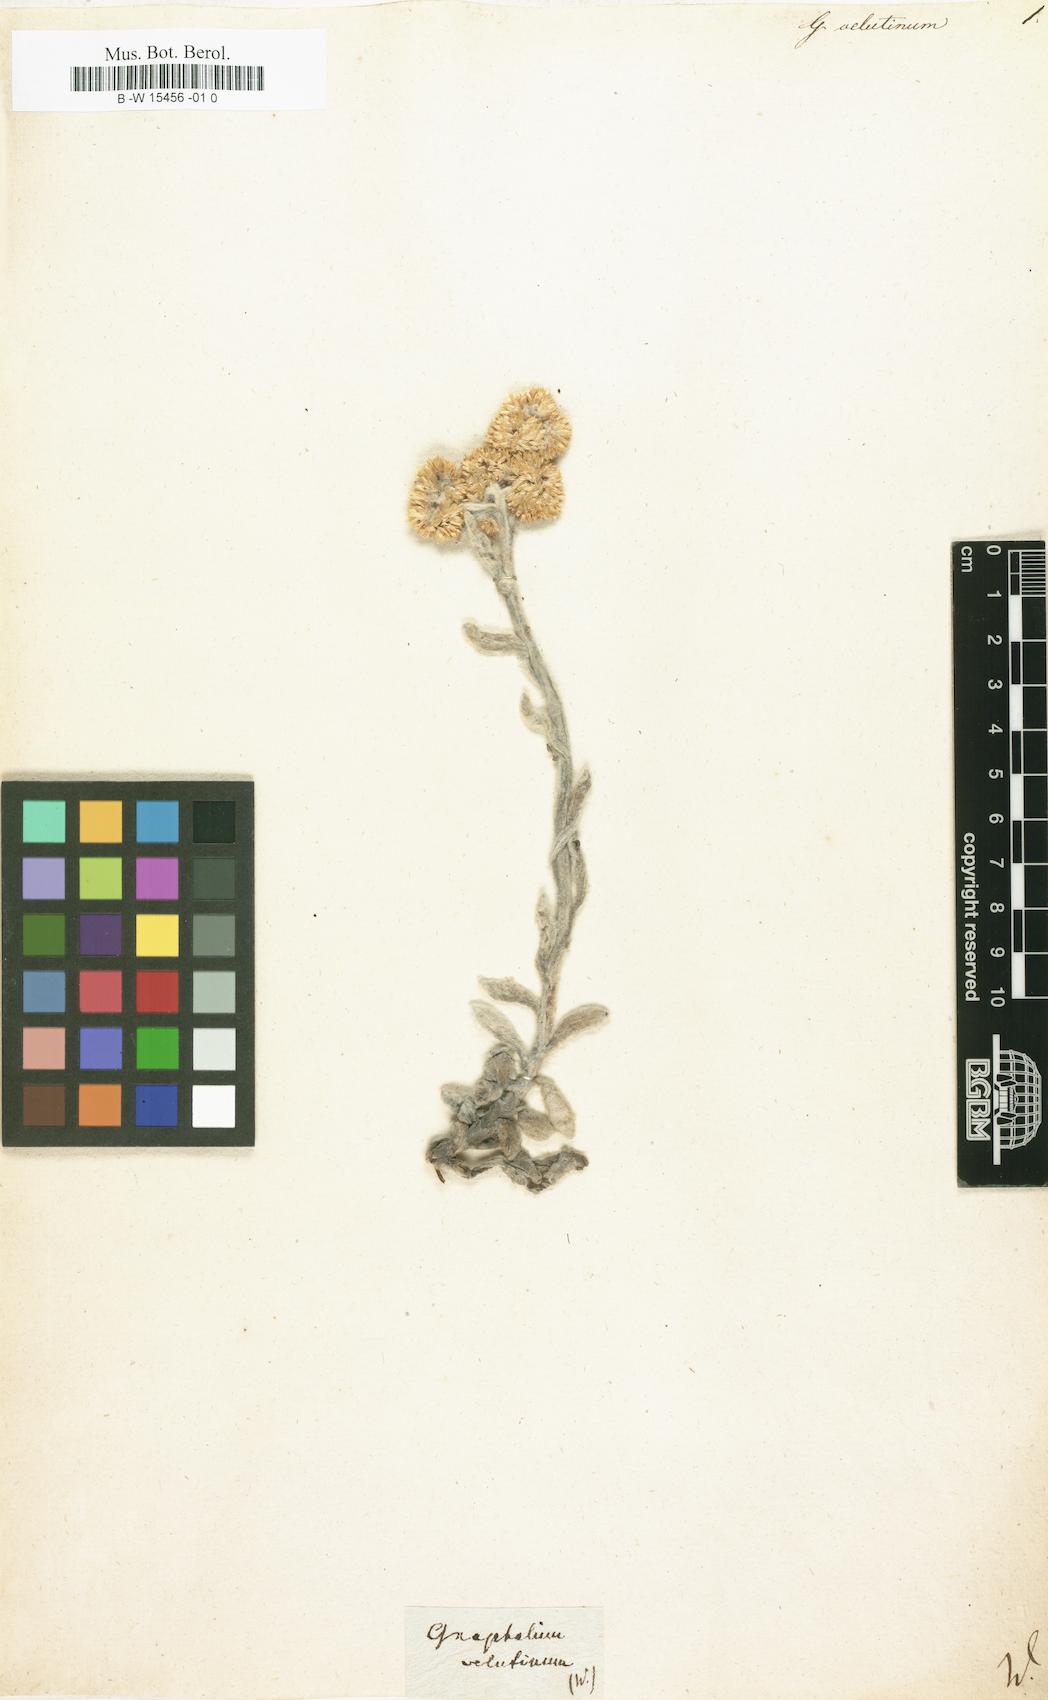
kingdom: Plantae
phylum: Tracheophyta
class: Magnoliopsida
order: Asterales
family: Asteraceae
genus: Gnaphalium
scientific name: Gnaphalium velutinum
